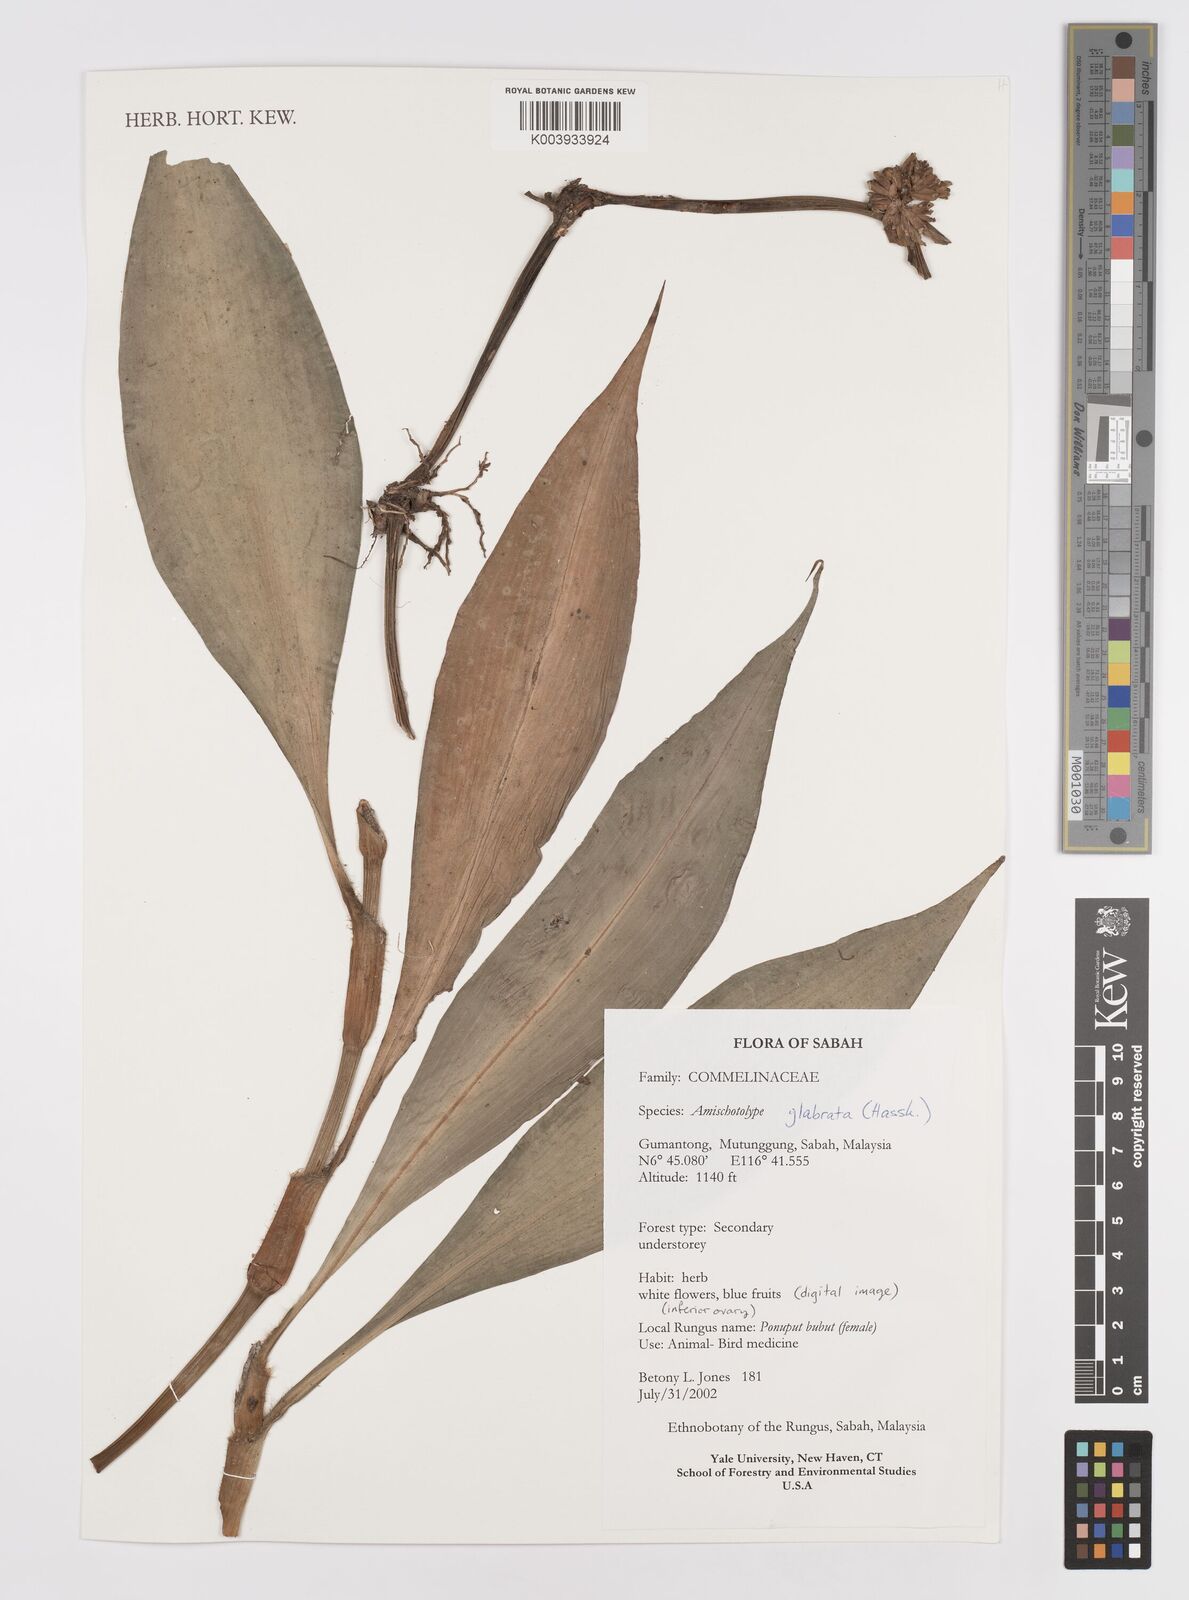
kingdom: Plantae
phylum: Tracheophyta
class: Liliopsida
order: Commelinales
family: Commelinaceae
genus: Amischotolype
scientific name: Amischotolype glabrata
